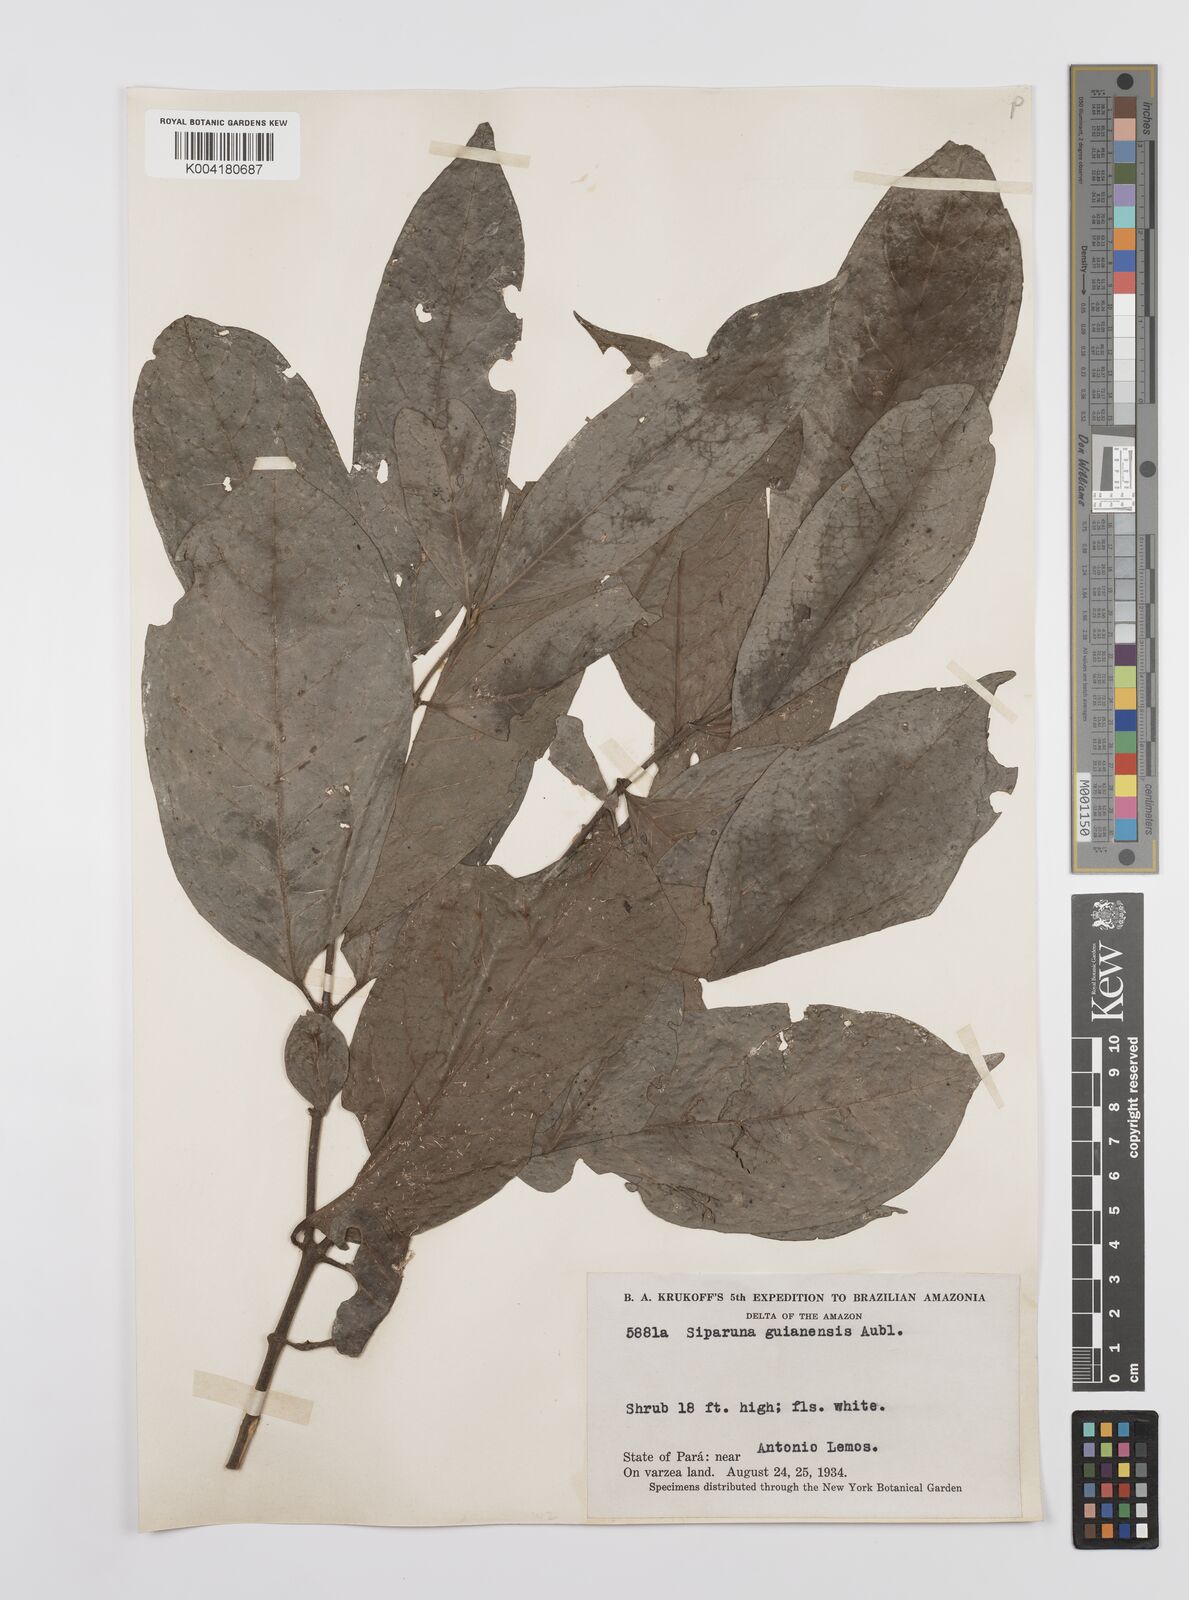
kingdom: Plantae
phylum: Tracheophyta
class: Magnoliopsida
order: Laurales
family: Siparunaceae
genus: Siparuna
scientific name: Siparuna guianensis
